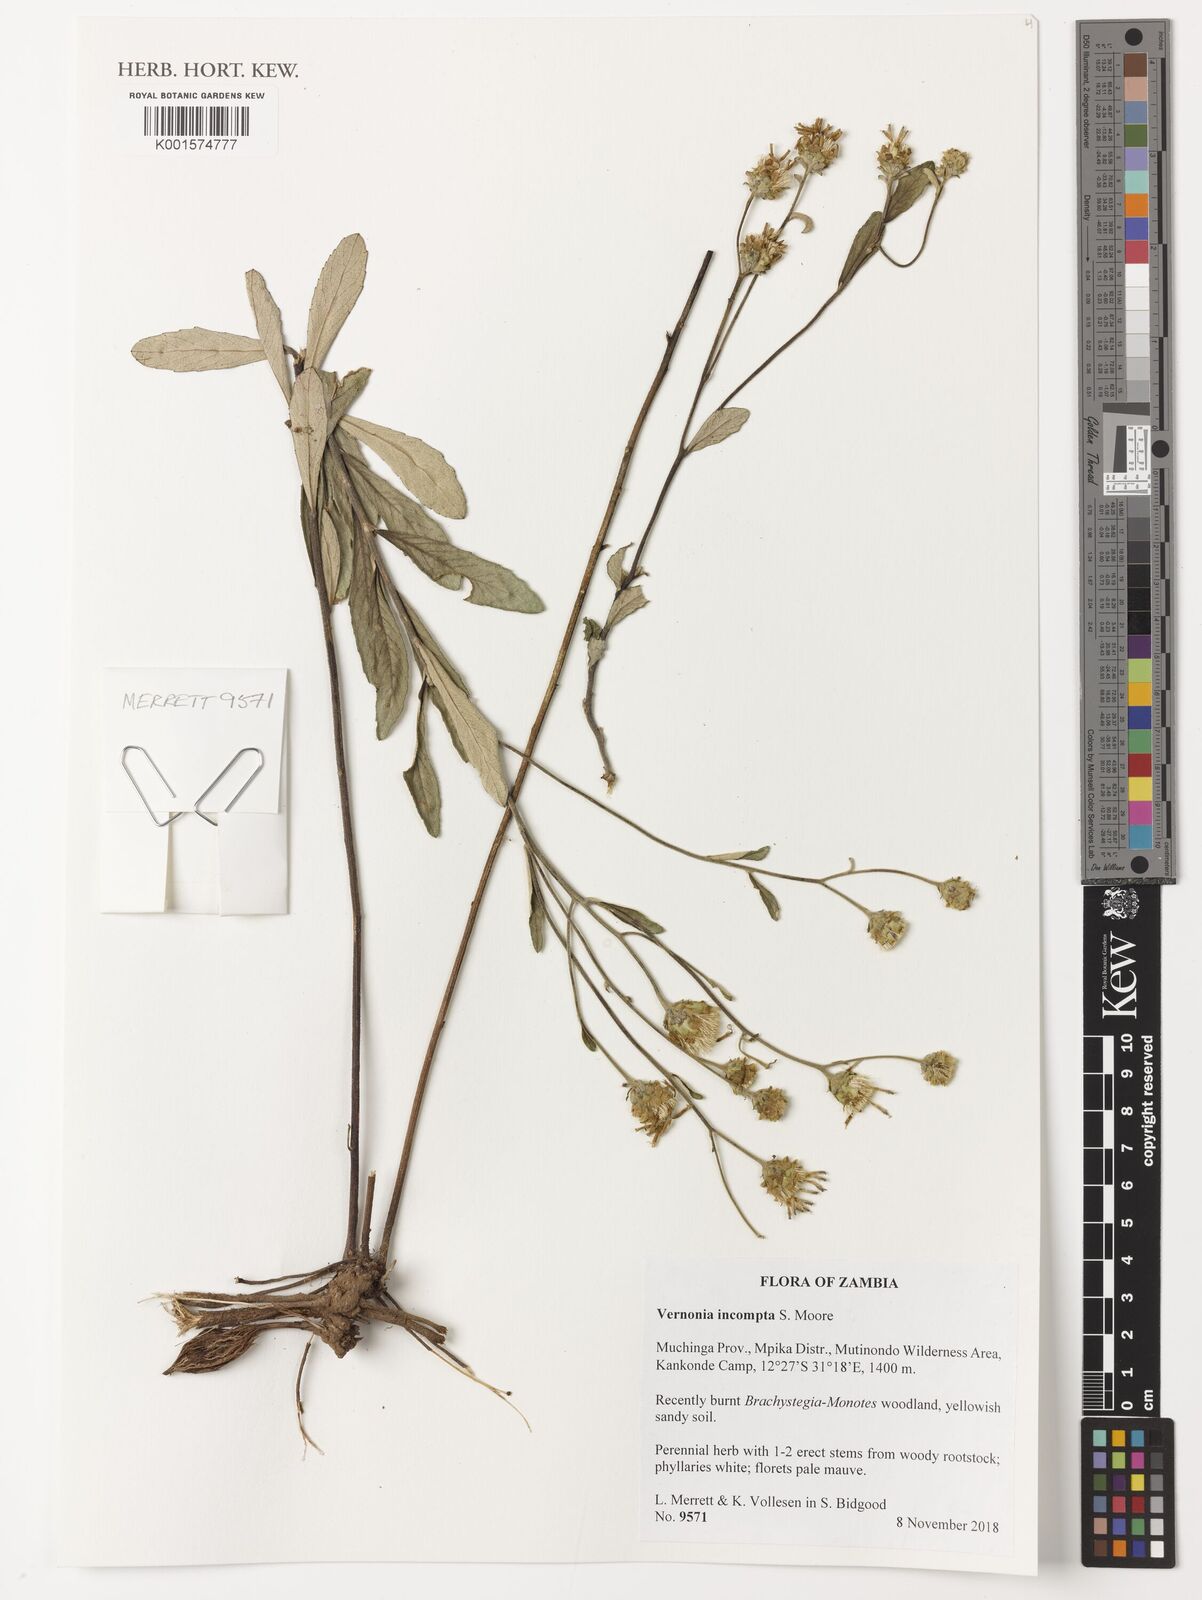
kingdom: Plantae
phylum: Tracheophyta
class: Magnoliopsida
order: Asterales
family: Asteraceae
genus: Baccharoides
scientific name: Baccharoides incompta
